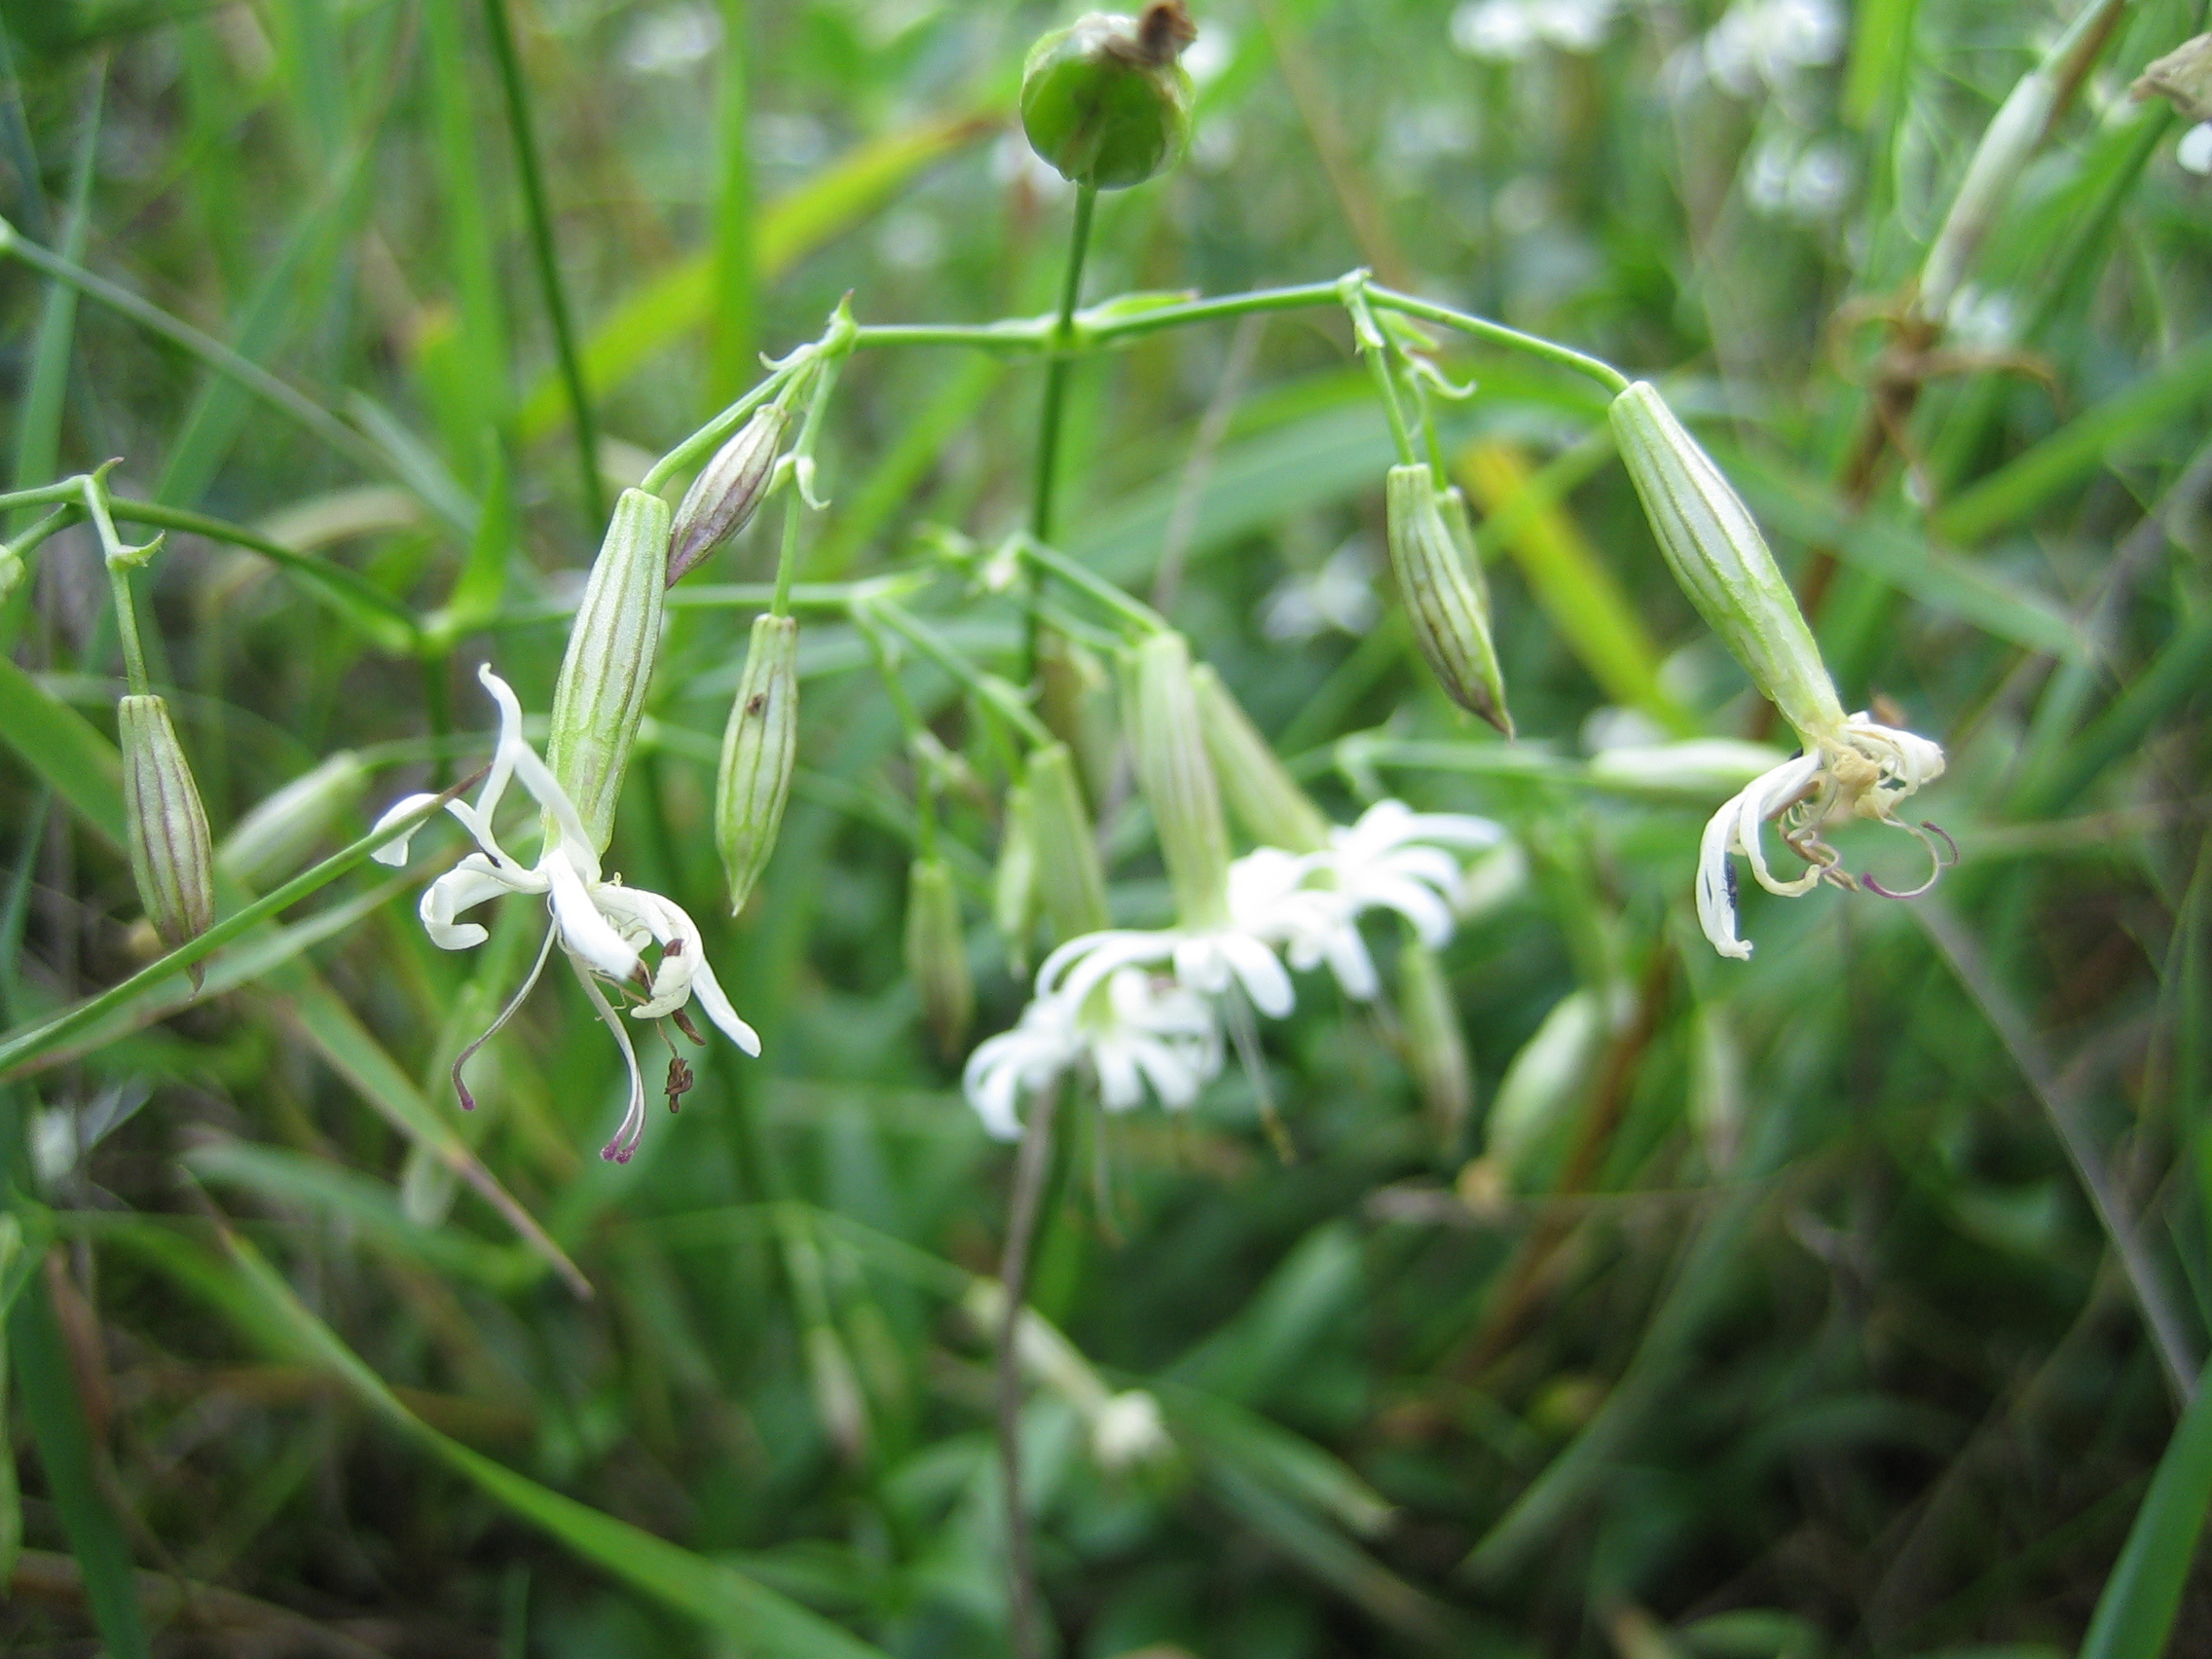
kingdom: Plantae
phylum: Tracheophyta
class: Magnoliopsida
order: Caryophyllales
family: Caryophyllaceae
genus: Silene
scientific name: Silene nutans
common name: Nottingham catchfly
